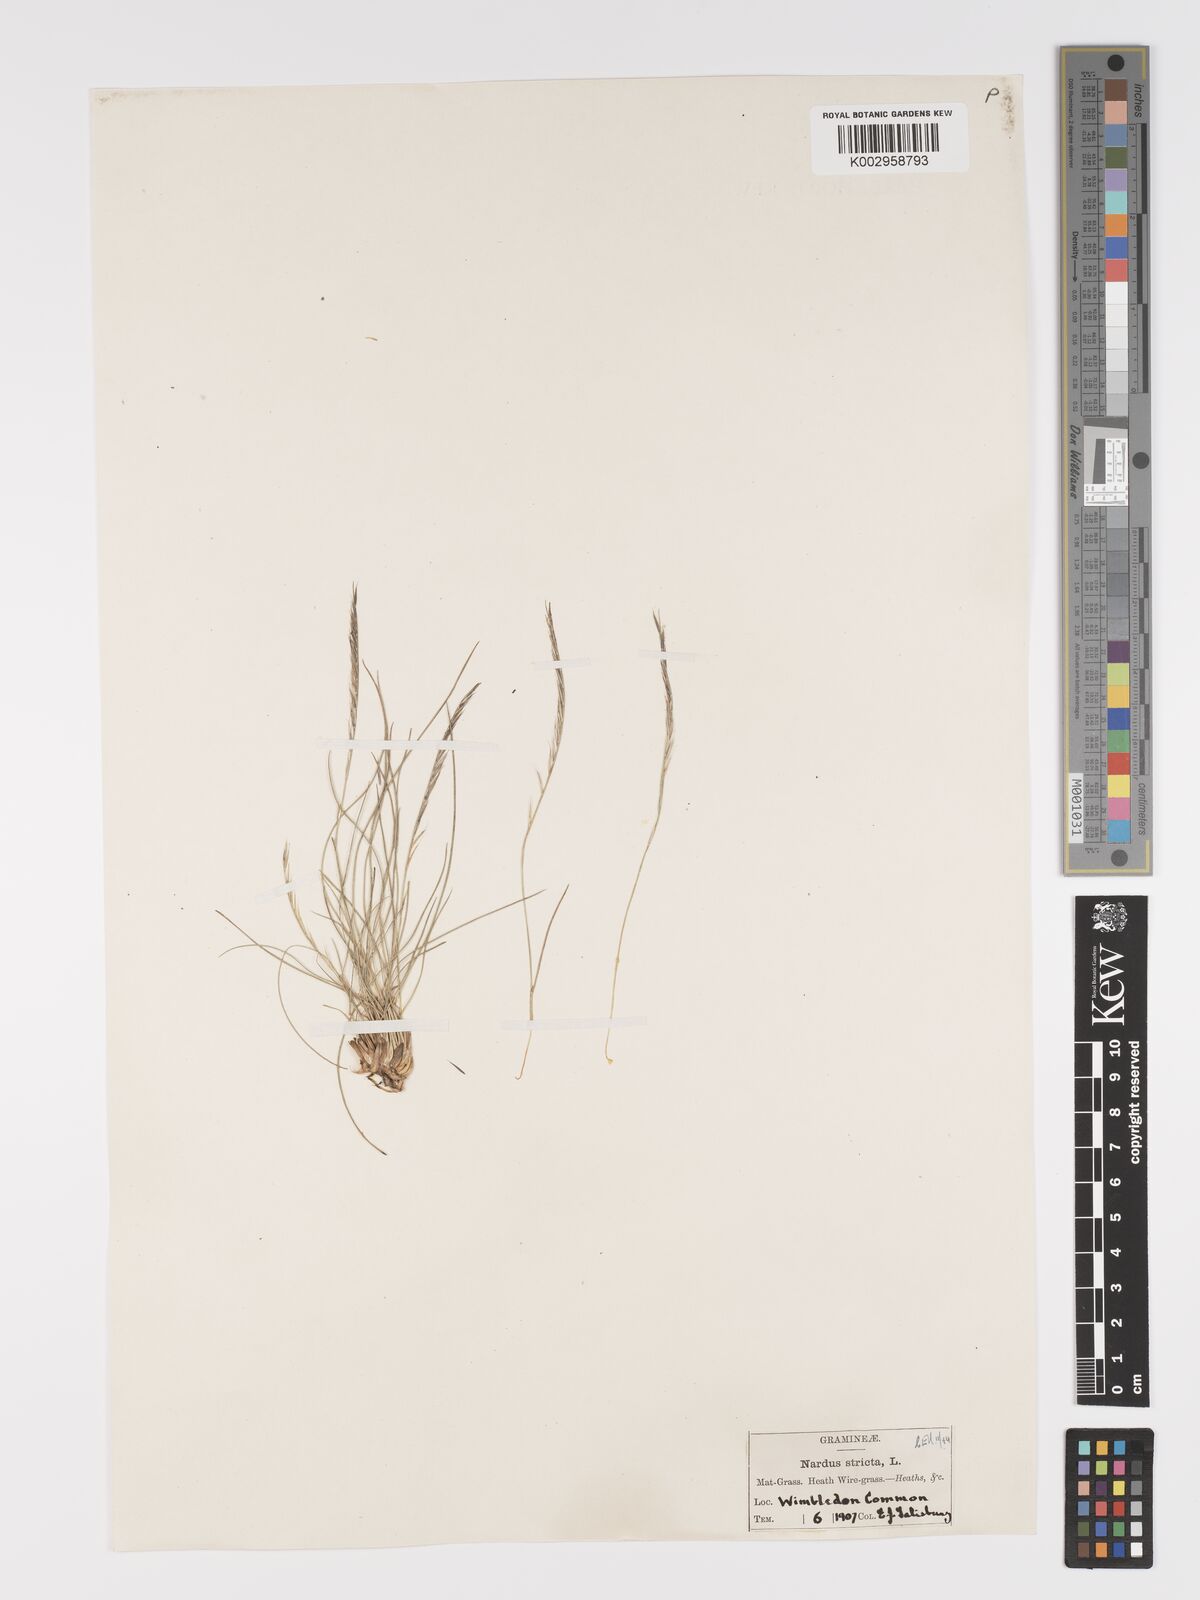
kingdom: Plantae
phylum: Tracheophyta
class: Liliopsida
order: Poales
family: Poaceae
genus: Nardus
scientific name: Nardus stricta
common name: Mat-grass
